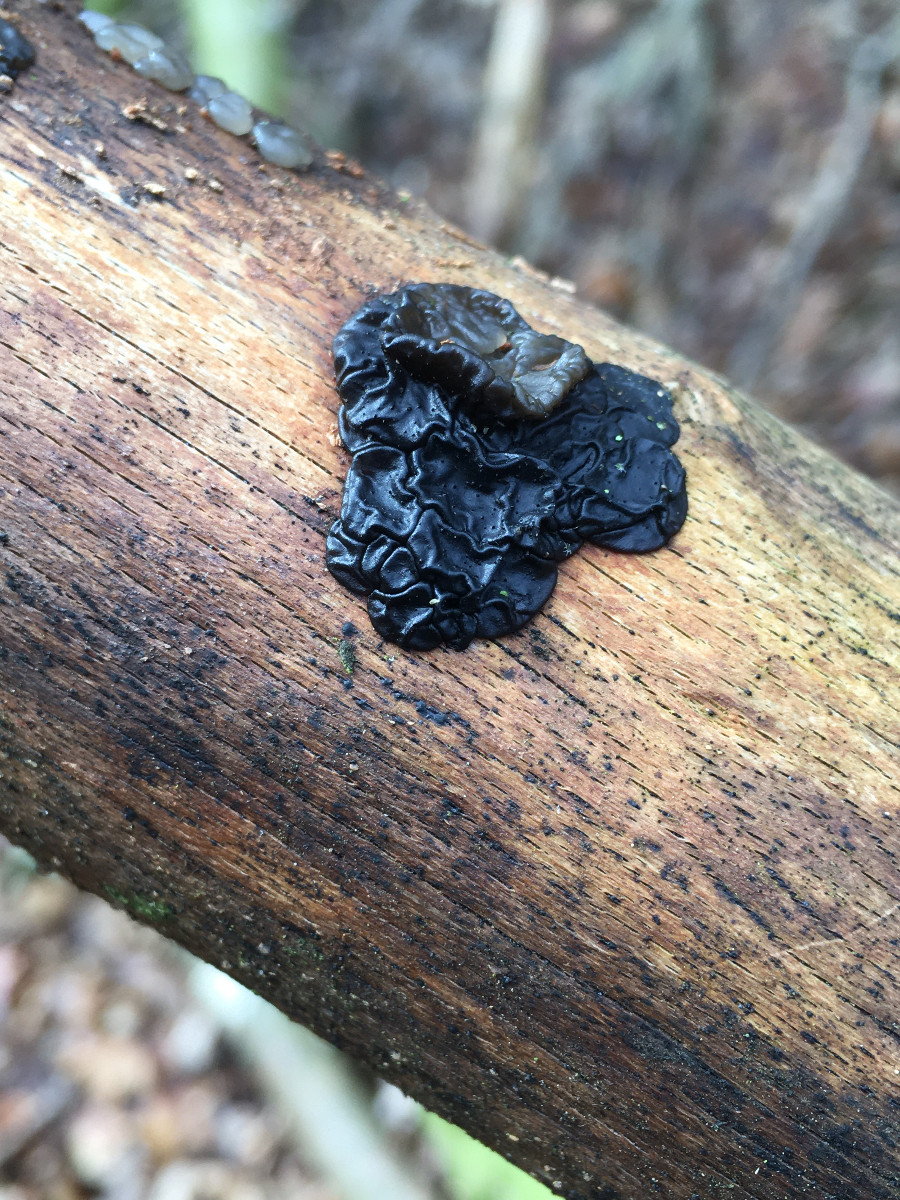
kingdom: Fungi
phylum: Basidiomycota
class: Agaricomycetes
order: Auriculariales
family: Auriculariaceae
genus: Exidia
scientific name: Exidia nigricans
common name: almindelig bævretop
